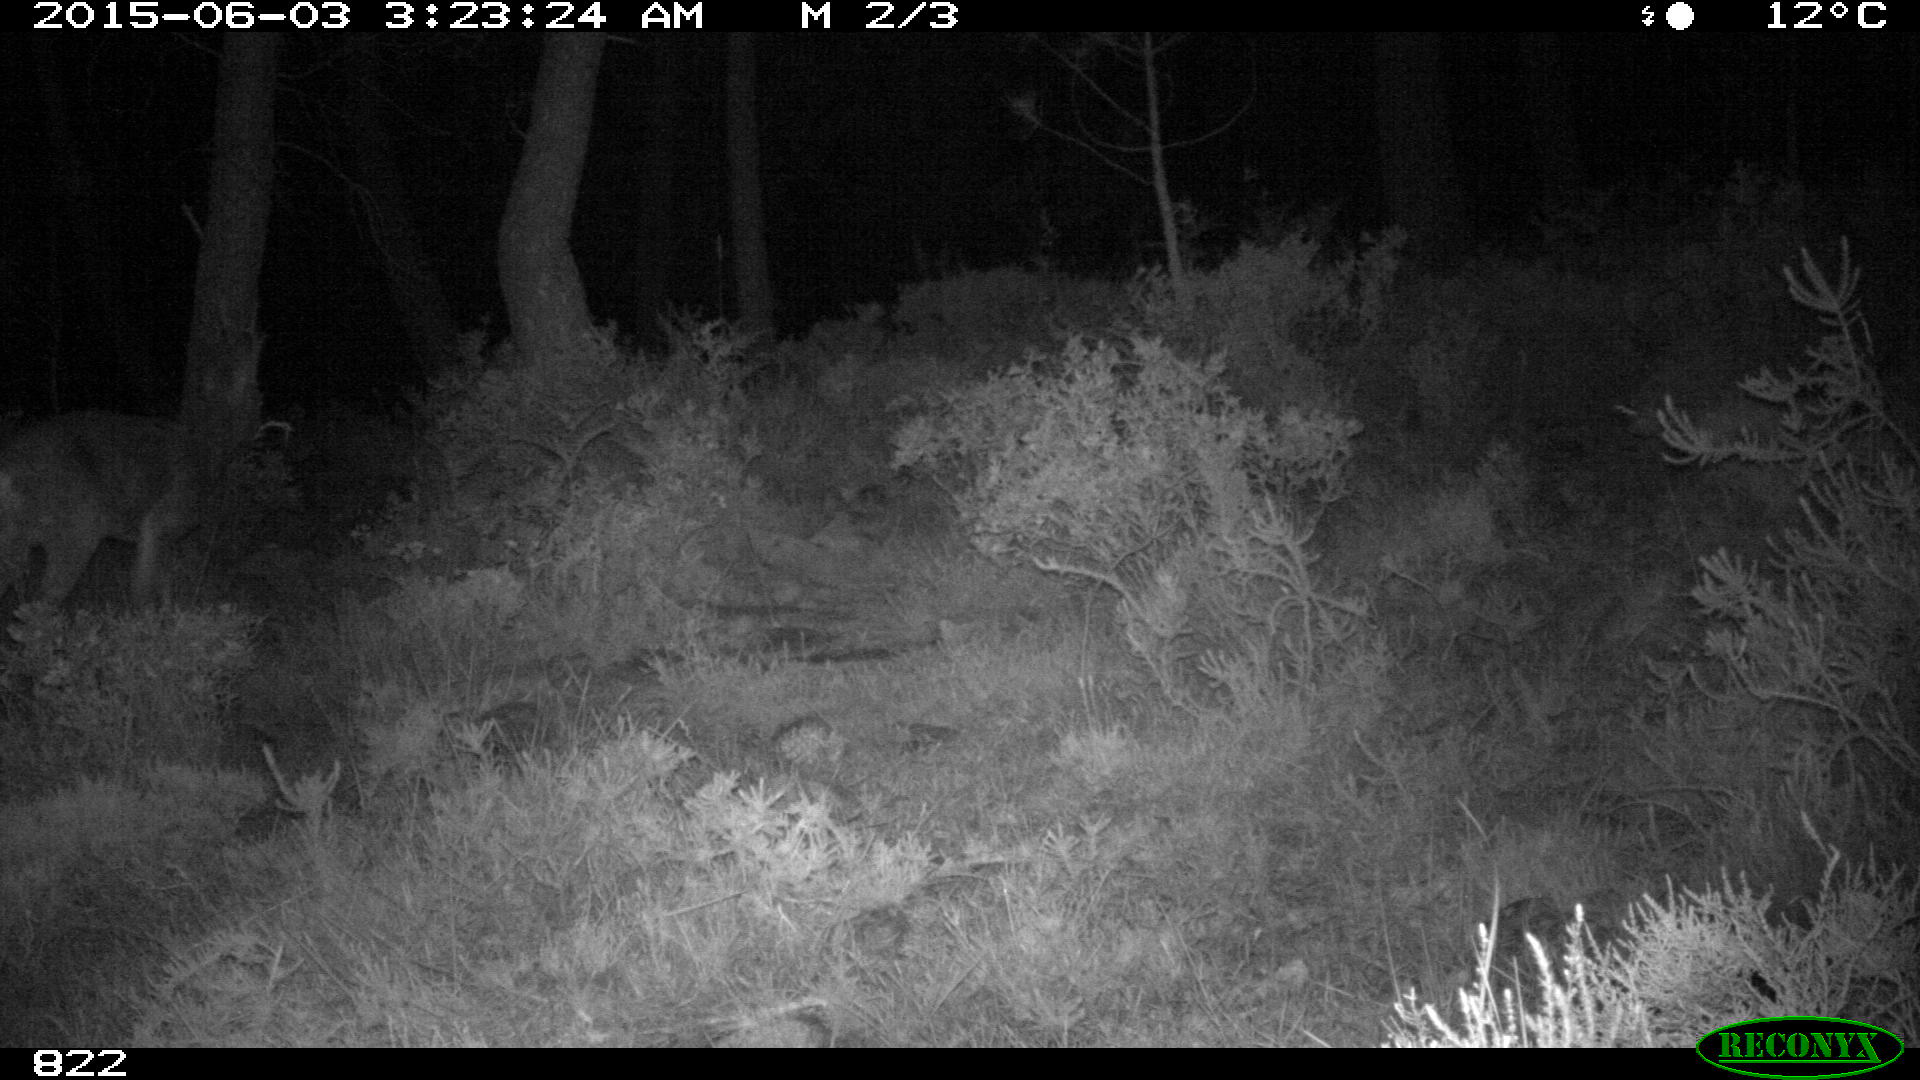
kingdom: Animalia
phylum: Chordata
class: Mammalia
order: Artiodactyla
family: Cervidae
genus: Capreolus
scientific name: Capreolus capreolus
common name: Western roe deer
